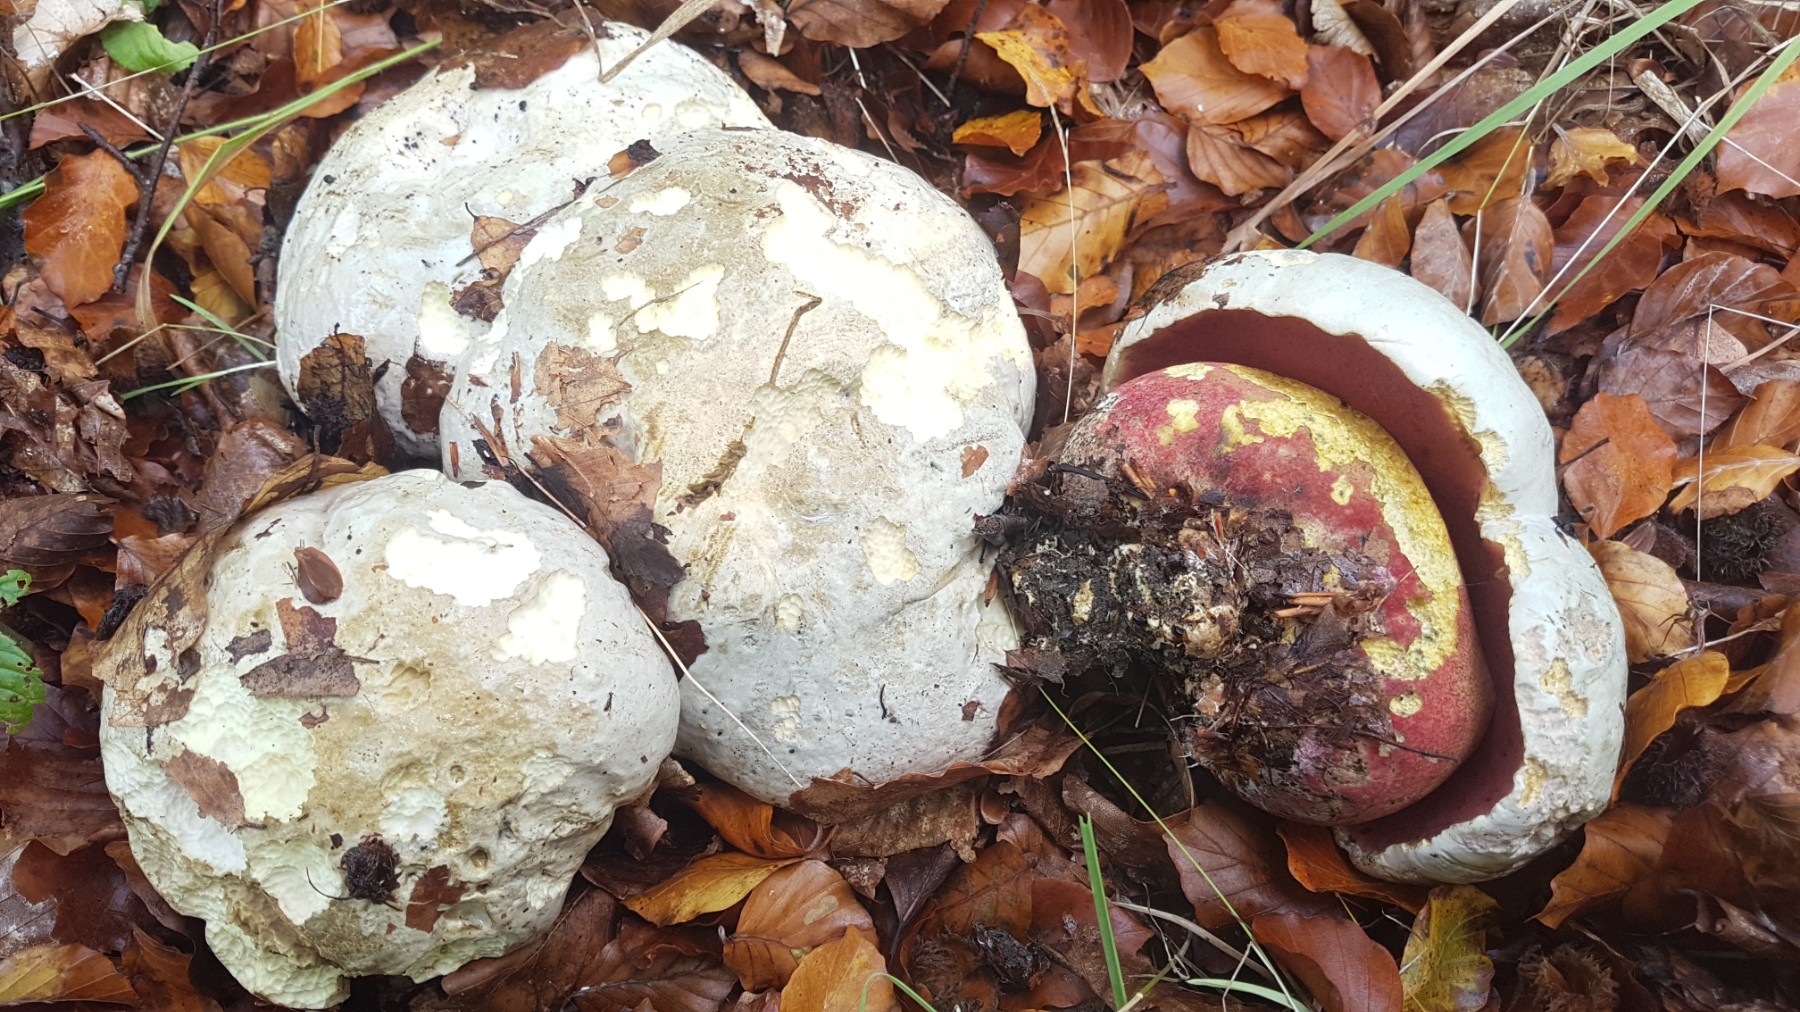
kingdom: Fungi
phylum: Basidiomycota
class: Agaricomycetes
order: Boletales
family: Boletaceae
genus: Rubroboletus
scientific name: Rubroboletus satanas
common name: Satans rørhat
